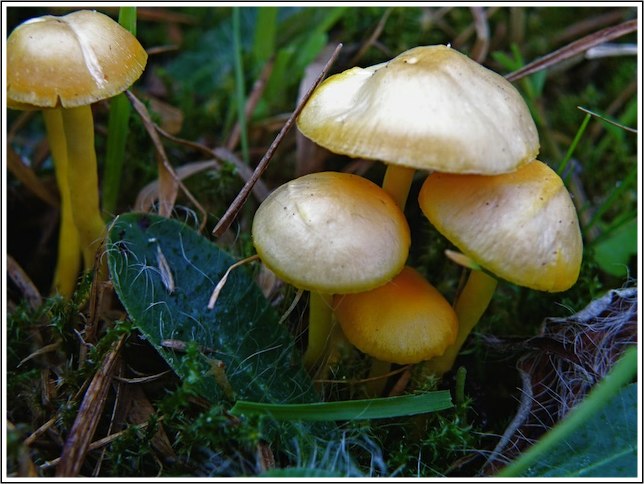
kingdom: Fungi
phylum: Basidiomycota
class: Agaricomycetes
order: Agaricales
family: Hygrophoraceae
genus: Hygrocybe
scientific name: Hygrocybe ceracea
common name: voksgul vokshat
